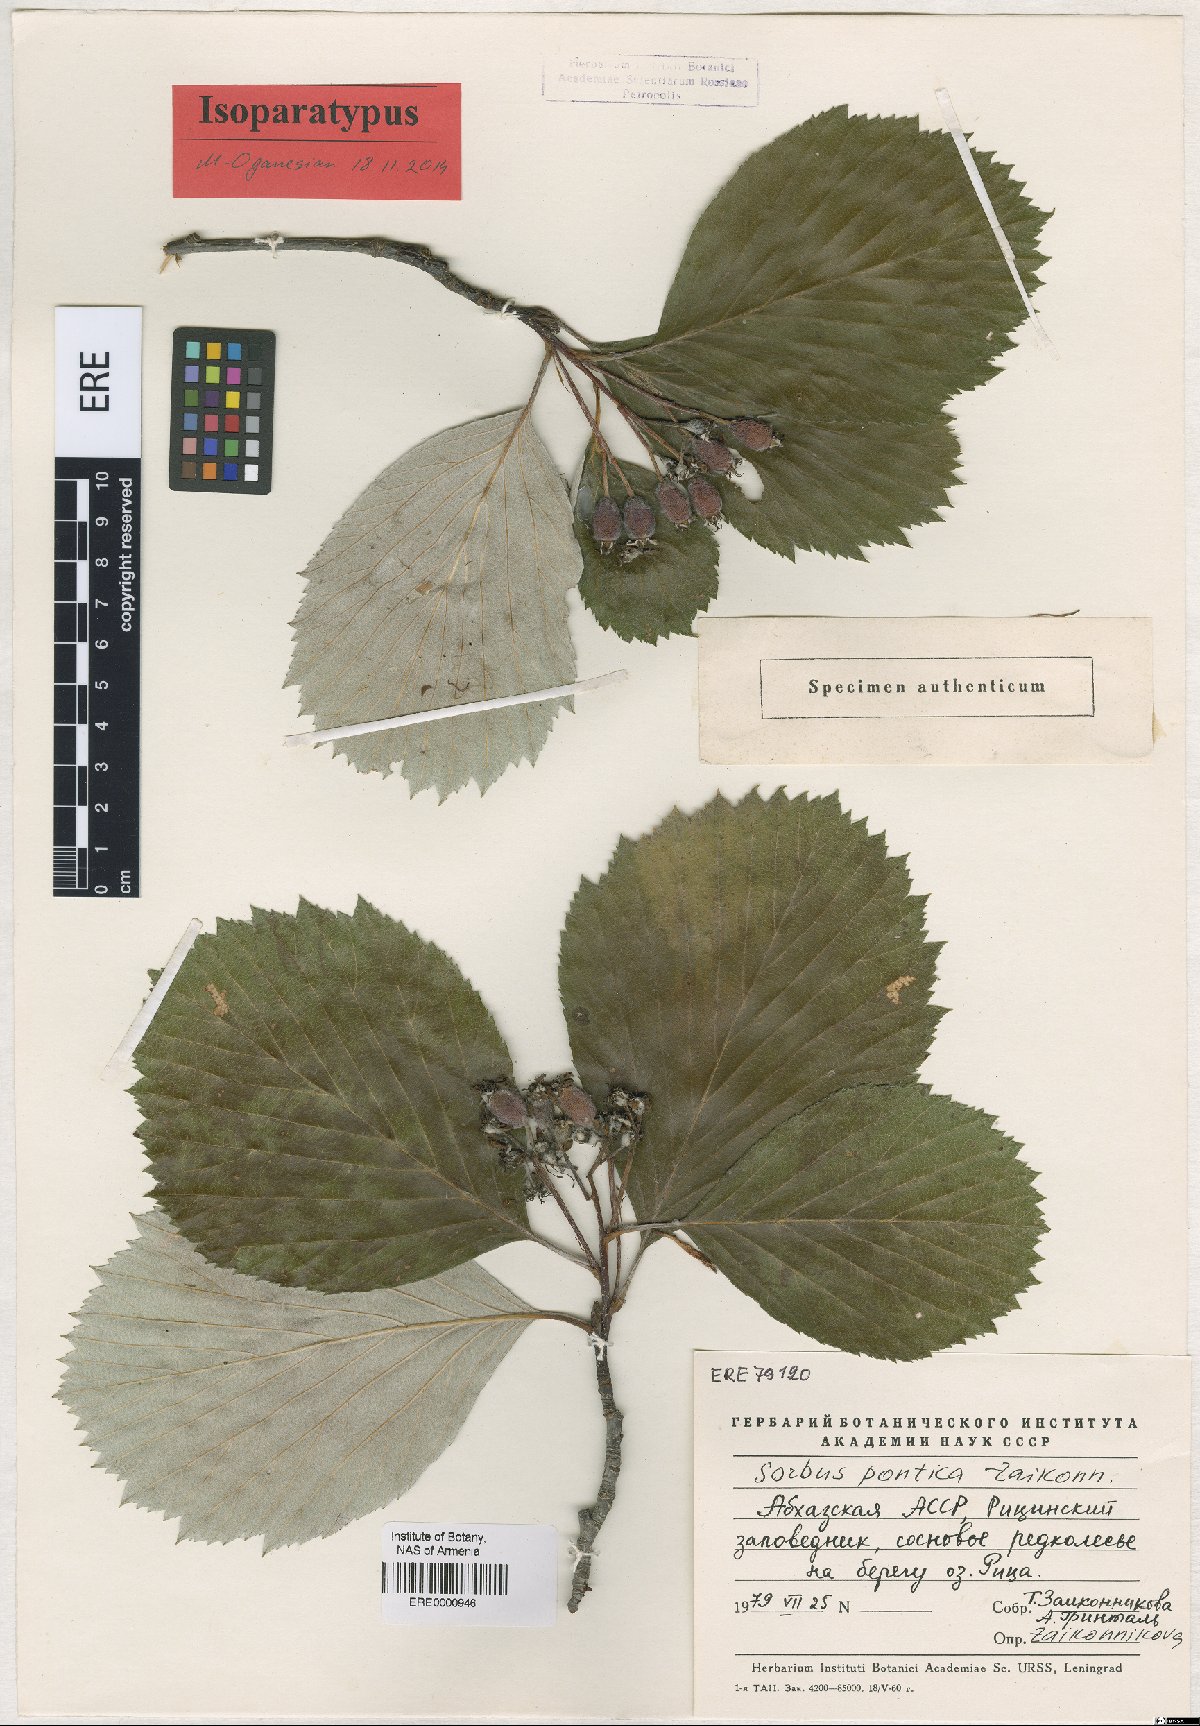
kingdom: Plantae
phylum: Tracheophyta
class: Magnoliopsida
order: Rosales
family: Rosaceae
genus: Sorbus
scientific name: Sorbus pontica
